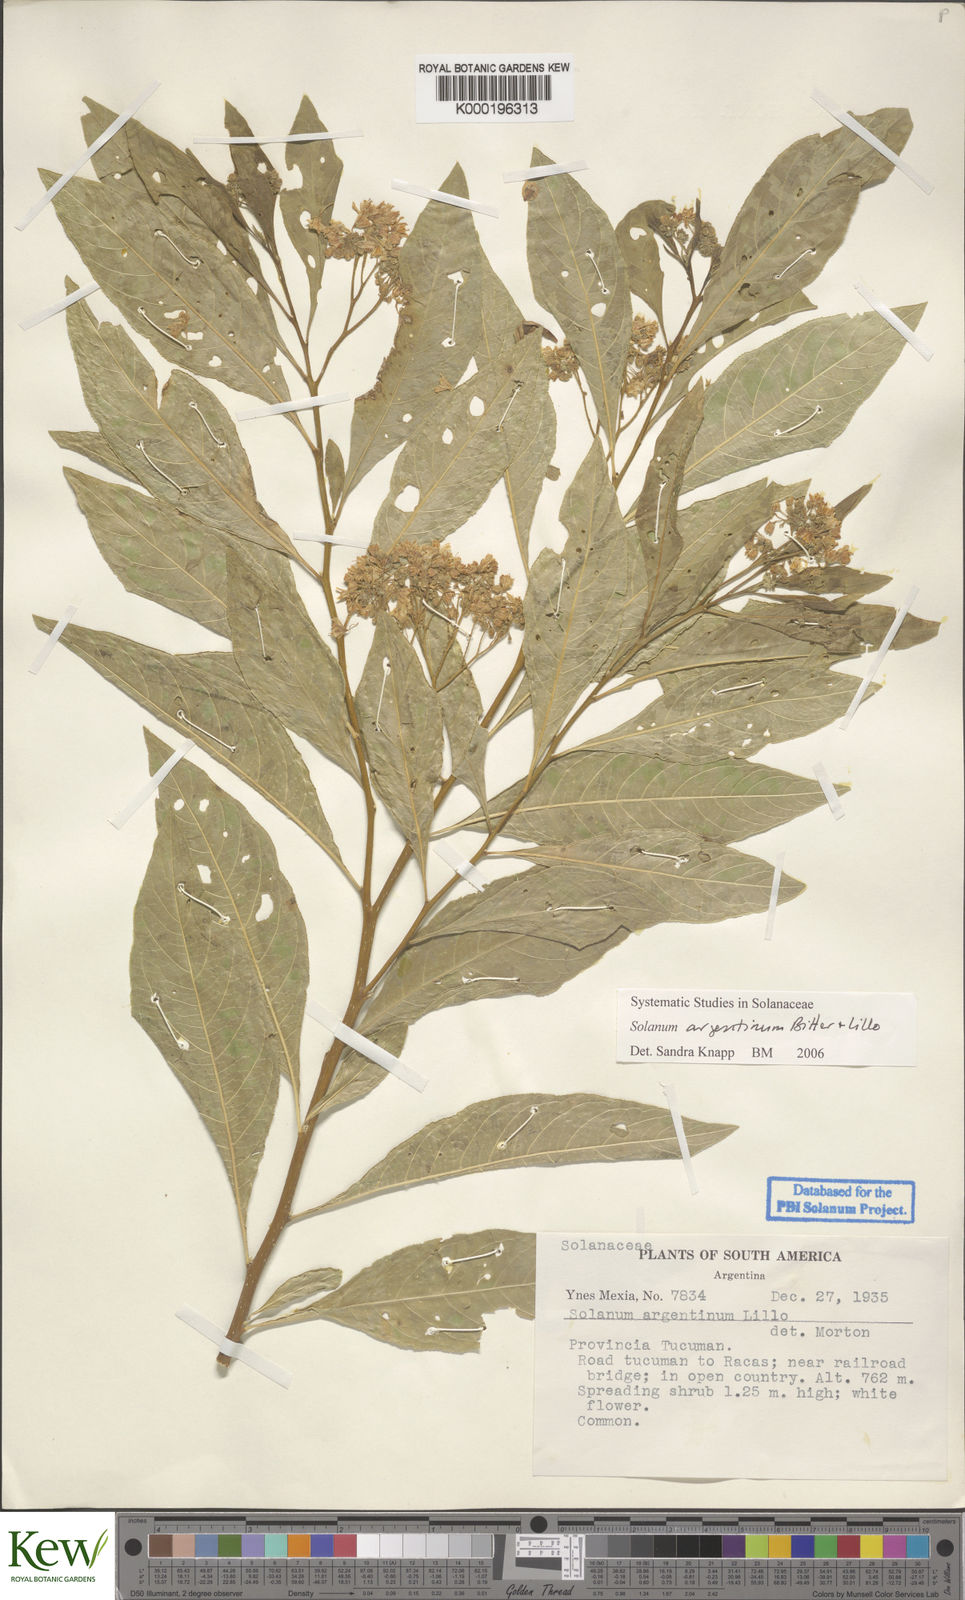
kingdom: Plantae
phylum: Tracheophyta
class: Magnoliopsida
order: Solanales
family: Solanaceae
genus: Solanum
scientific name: Solanum argentinum
